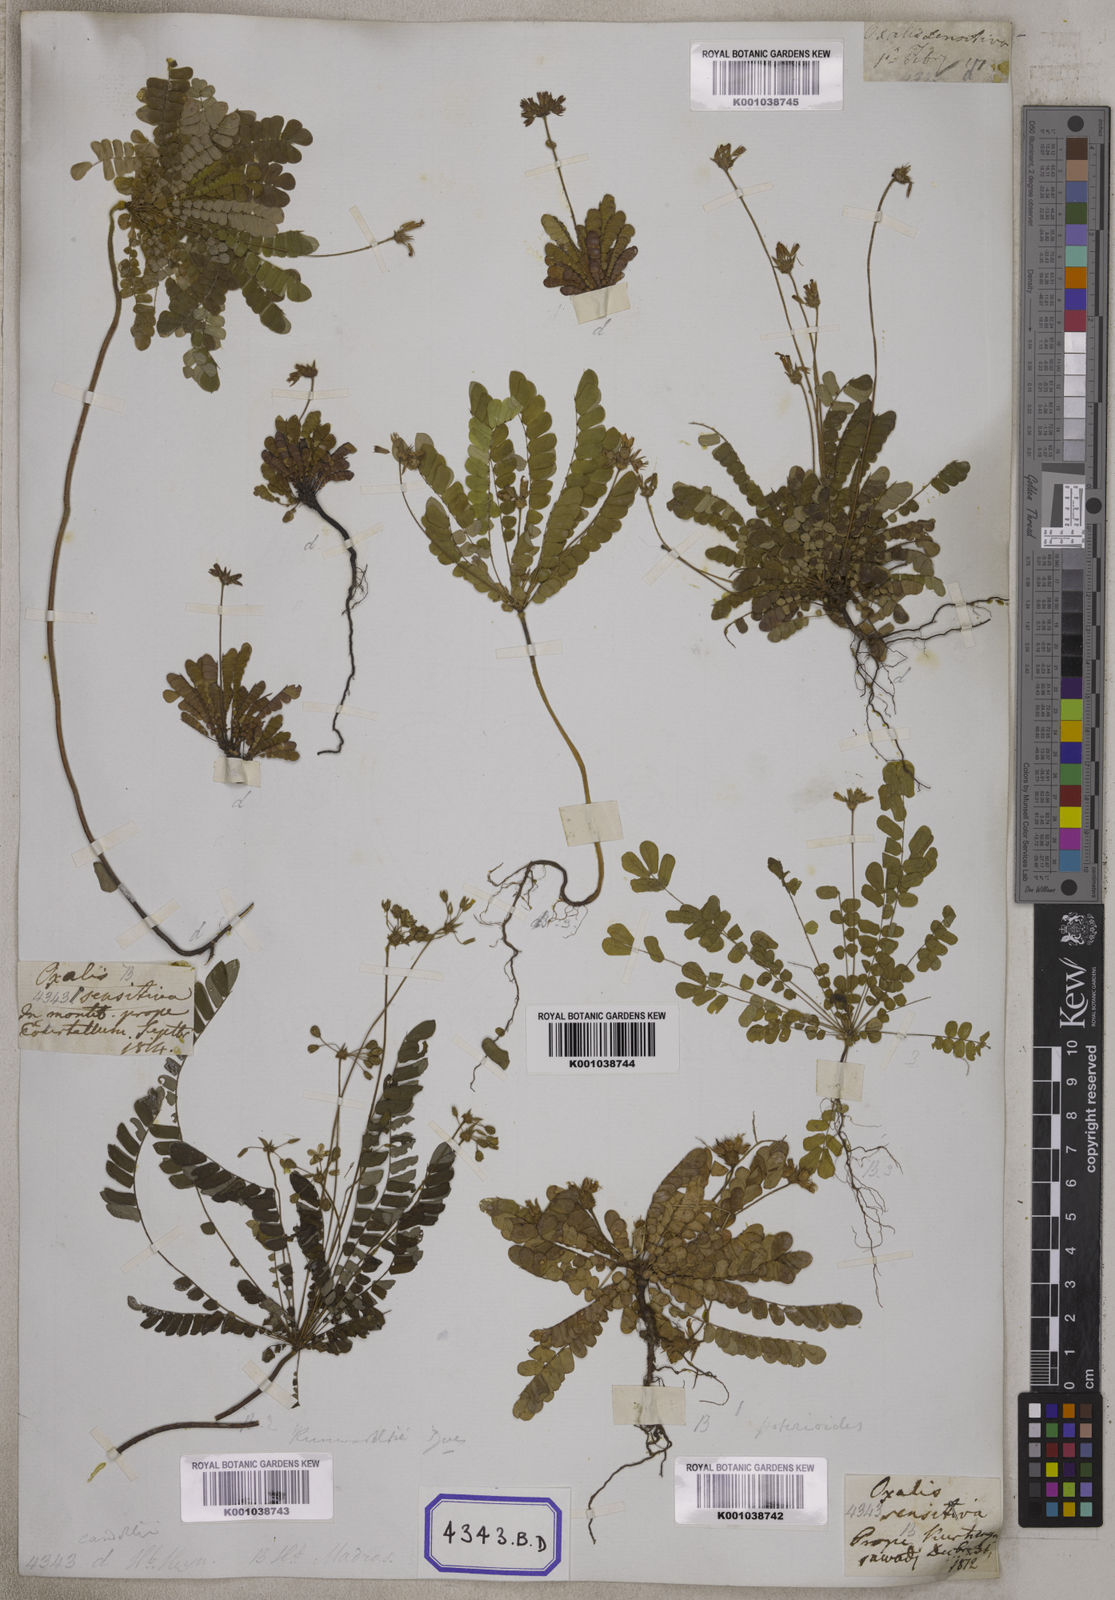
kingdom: Plantae
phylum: Tracheophyta
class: Magnoliopsida
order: Oxalidales
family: Oxalidaceae
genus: Biophytum
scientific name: Biophytum sensitivum
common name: Lifeplant
